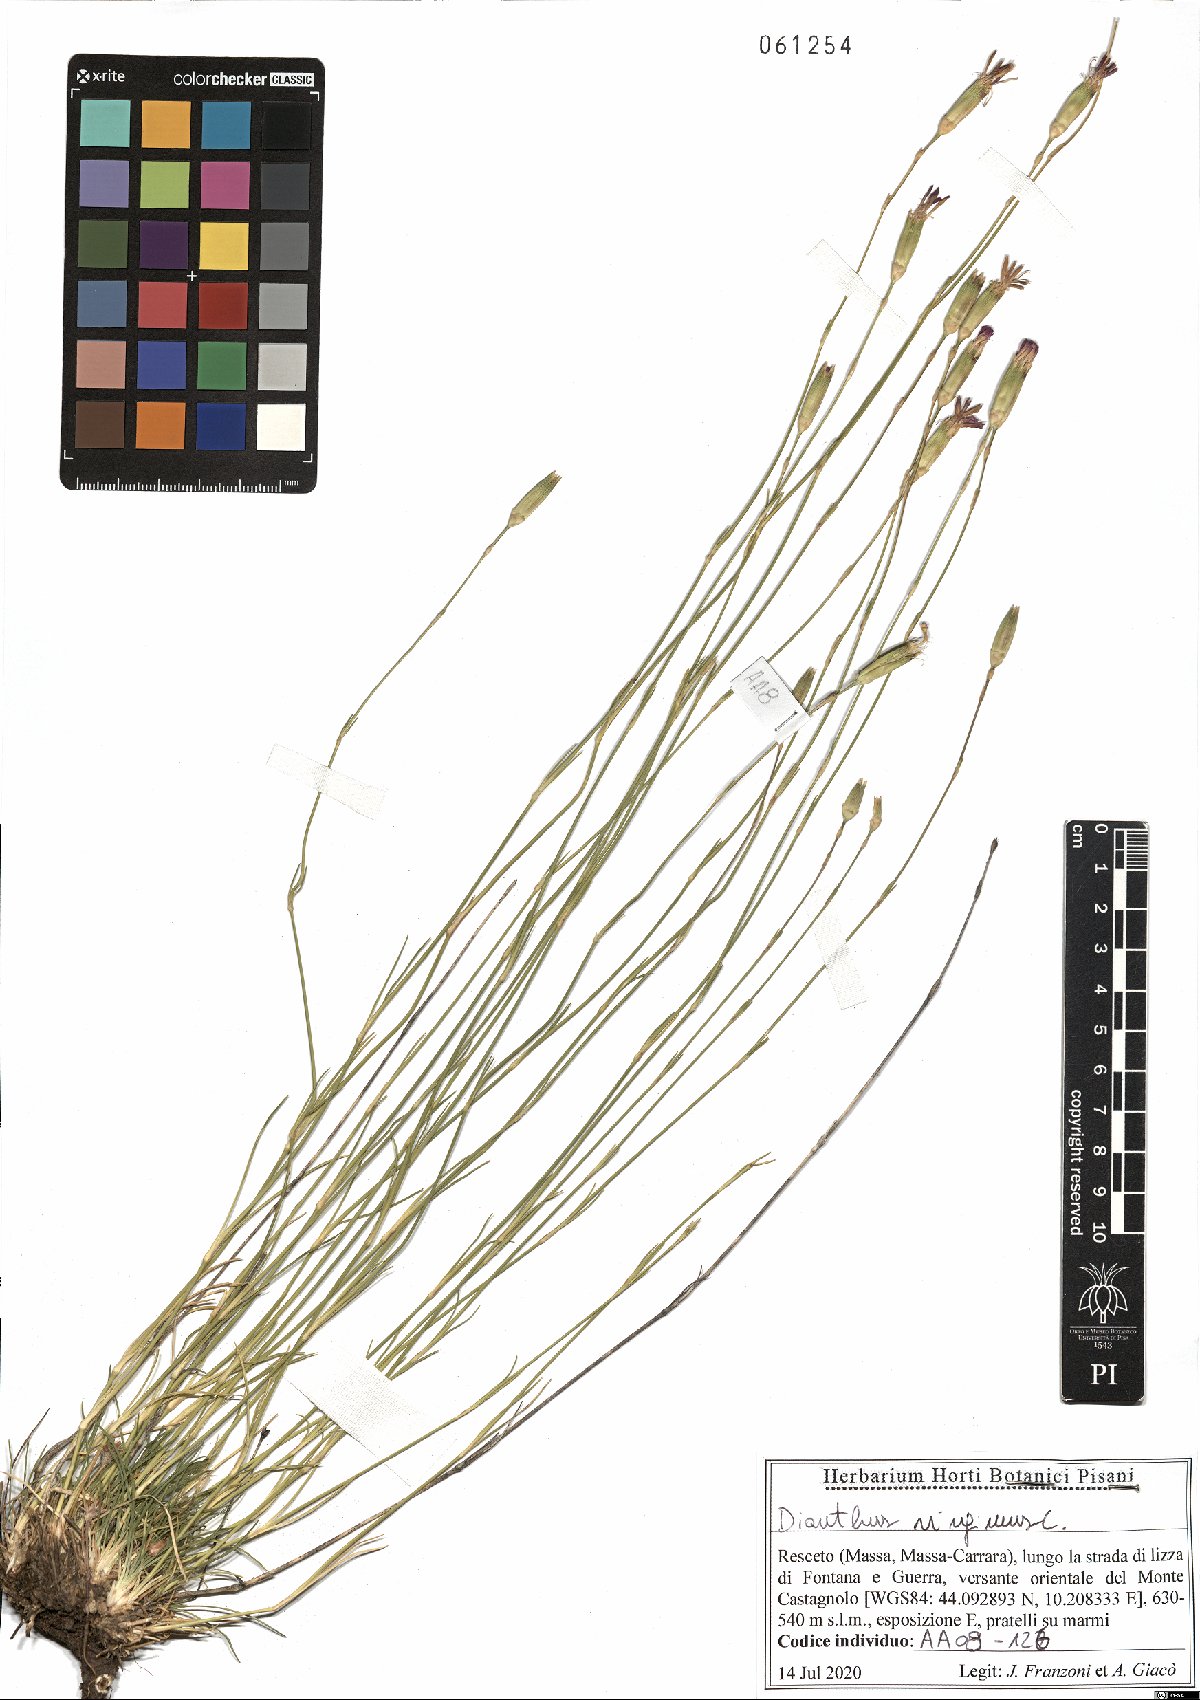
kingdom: Plantae
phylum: Tracheophyta
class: Magnoliopsida
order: Caryophyllales
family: Caryophyllaceae
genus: Dianthus
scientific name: Dianthus virgineus
